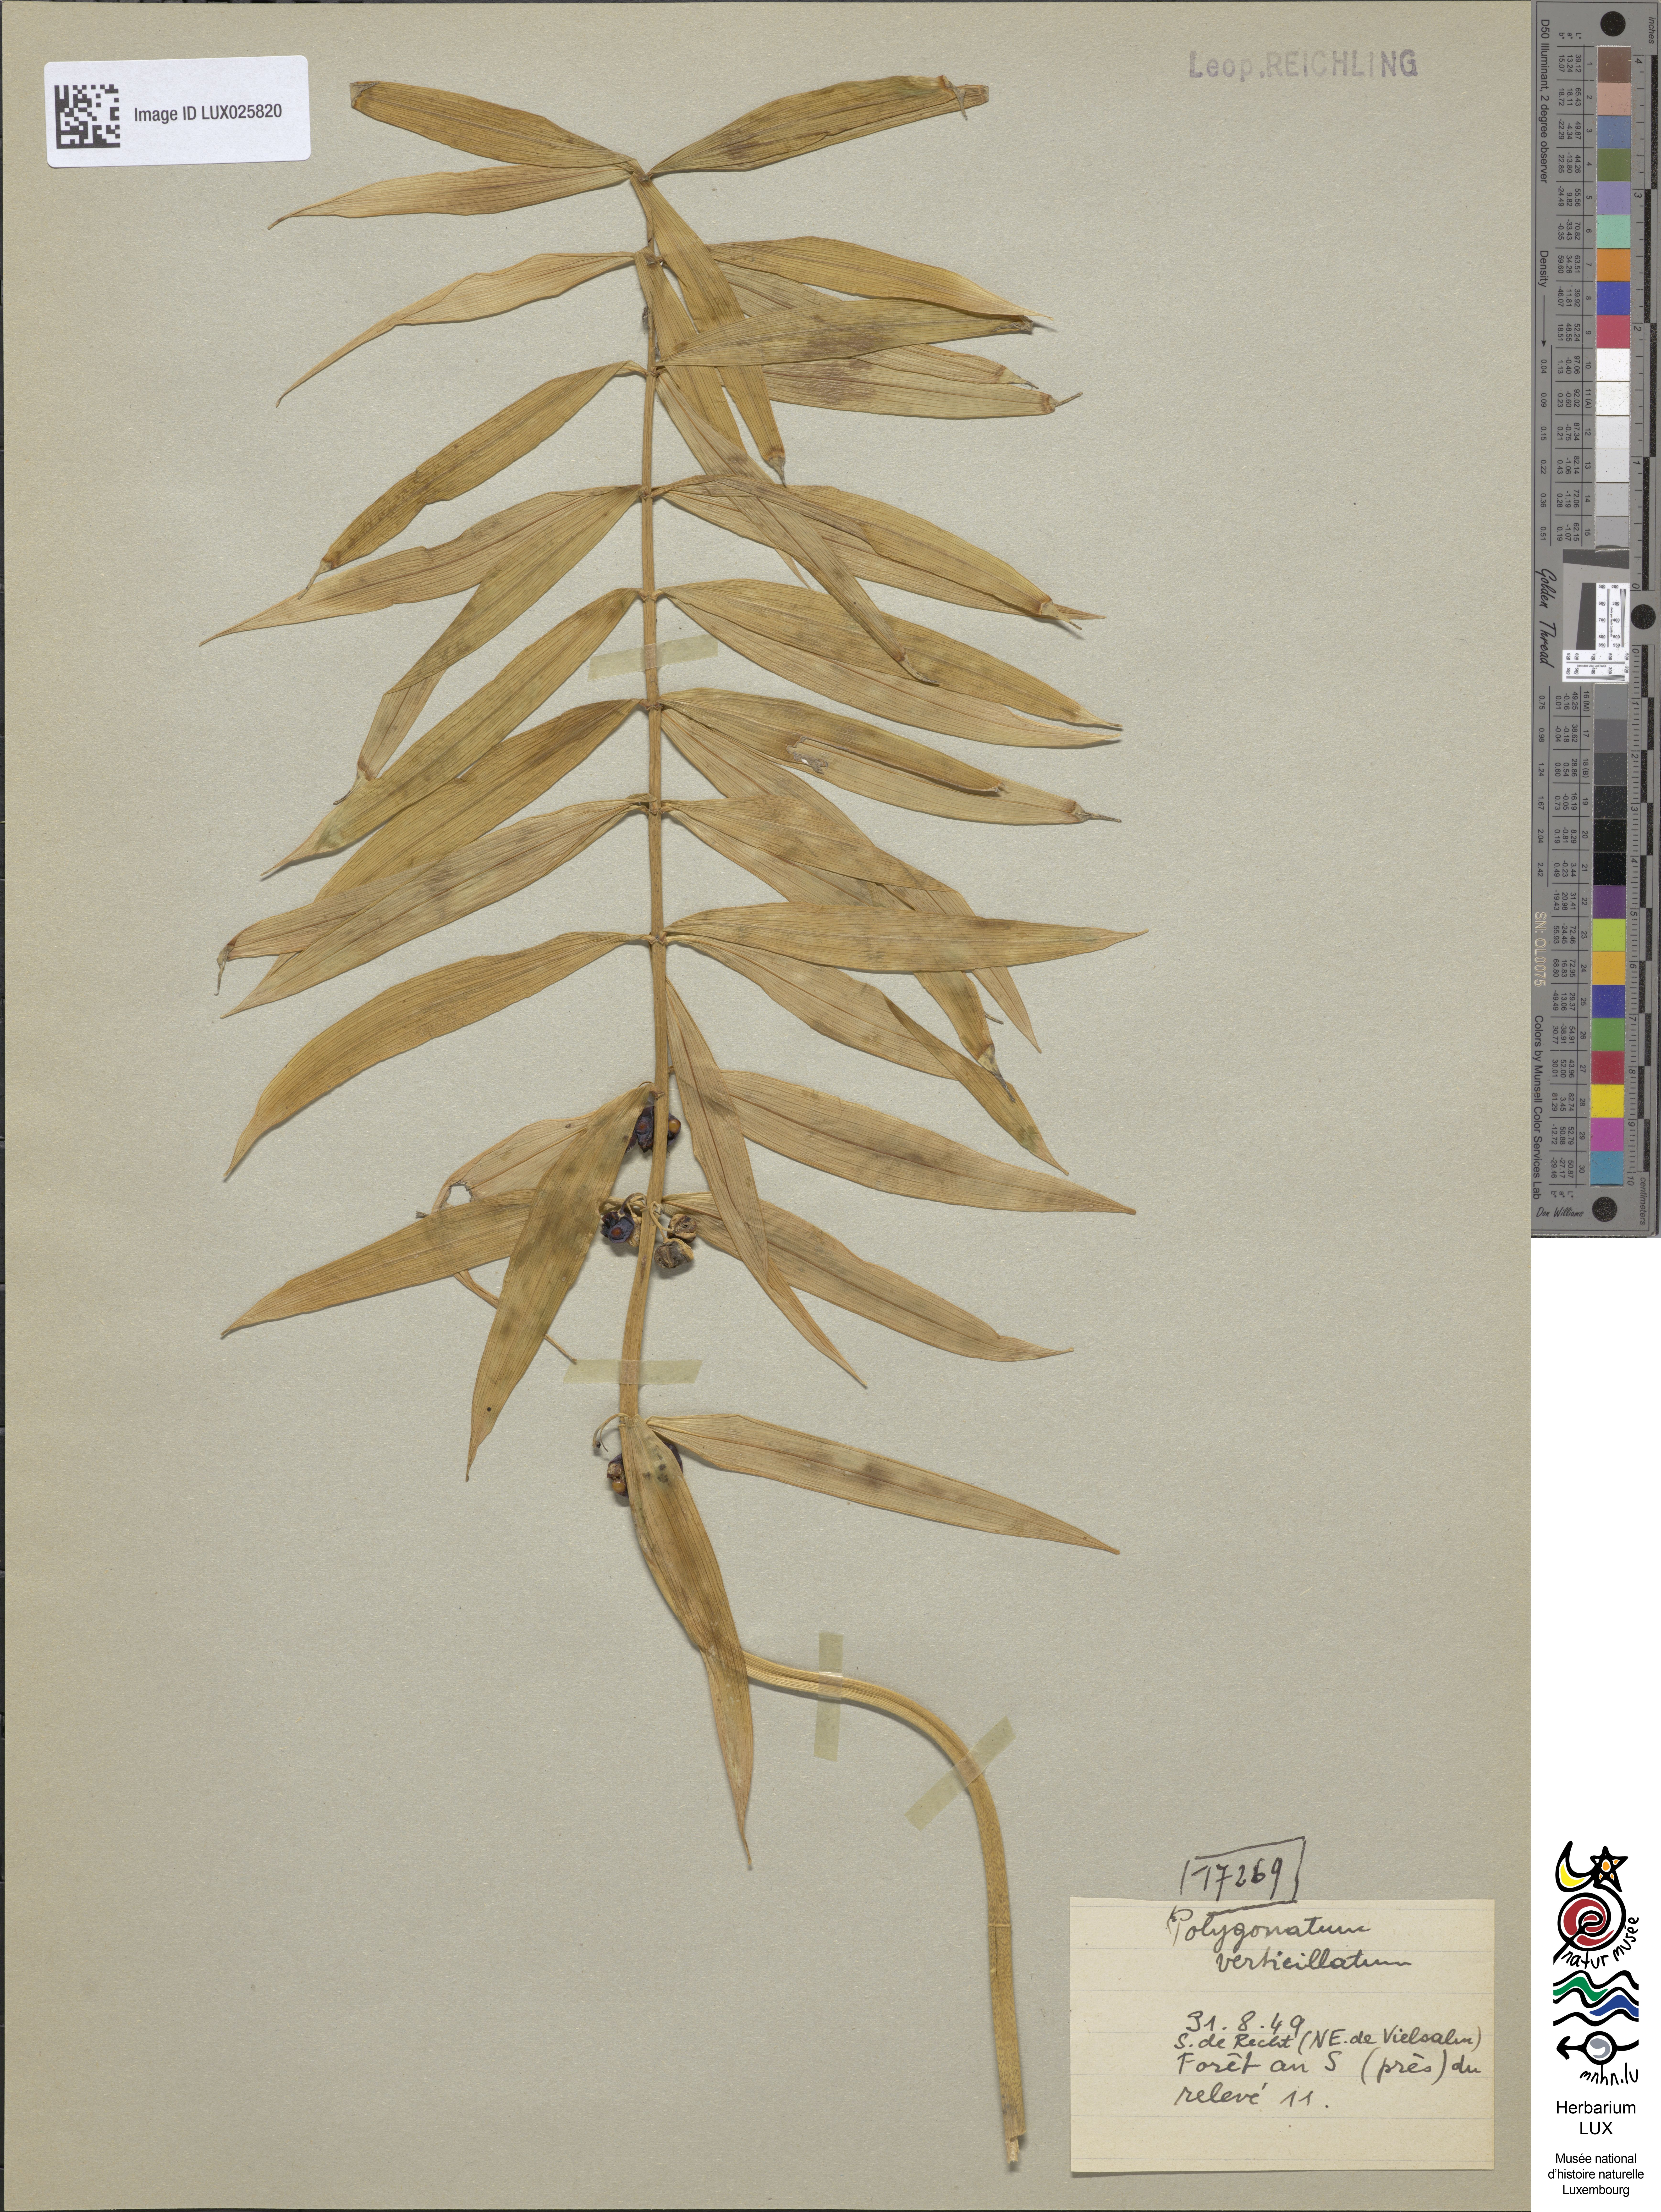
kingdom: Plantae
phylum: Tracheophyta
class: Liliopsida
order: Asparagales
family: Asparagaceae
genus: Polygonatum
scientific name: Polygonatum verticillatum
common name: Whorled solomon's-seal
